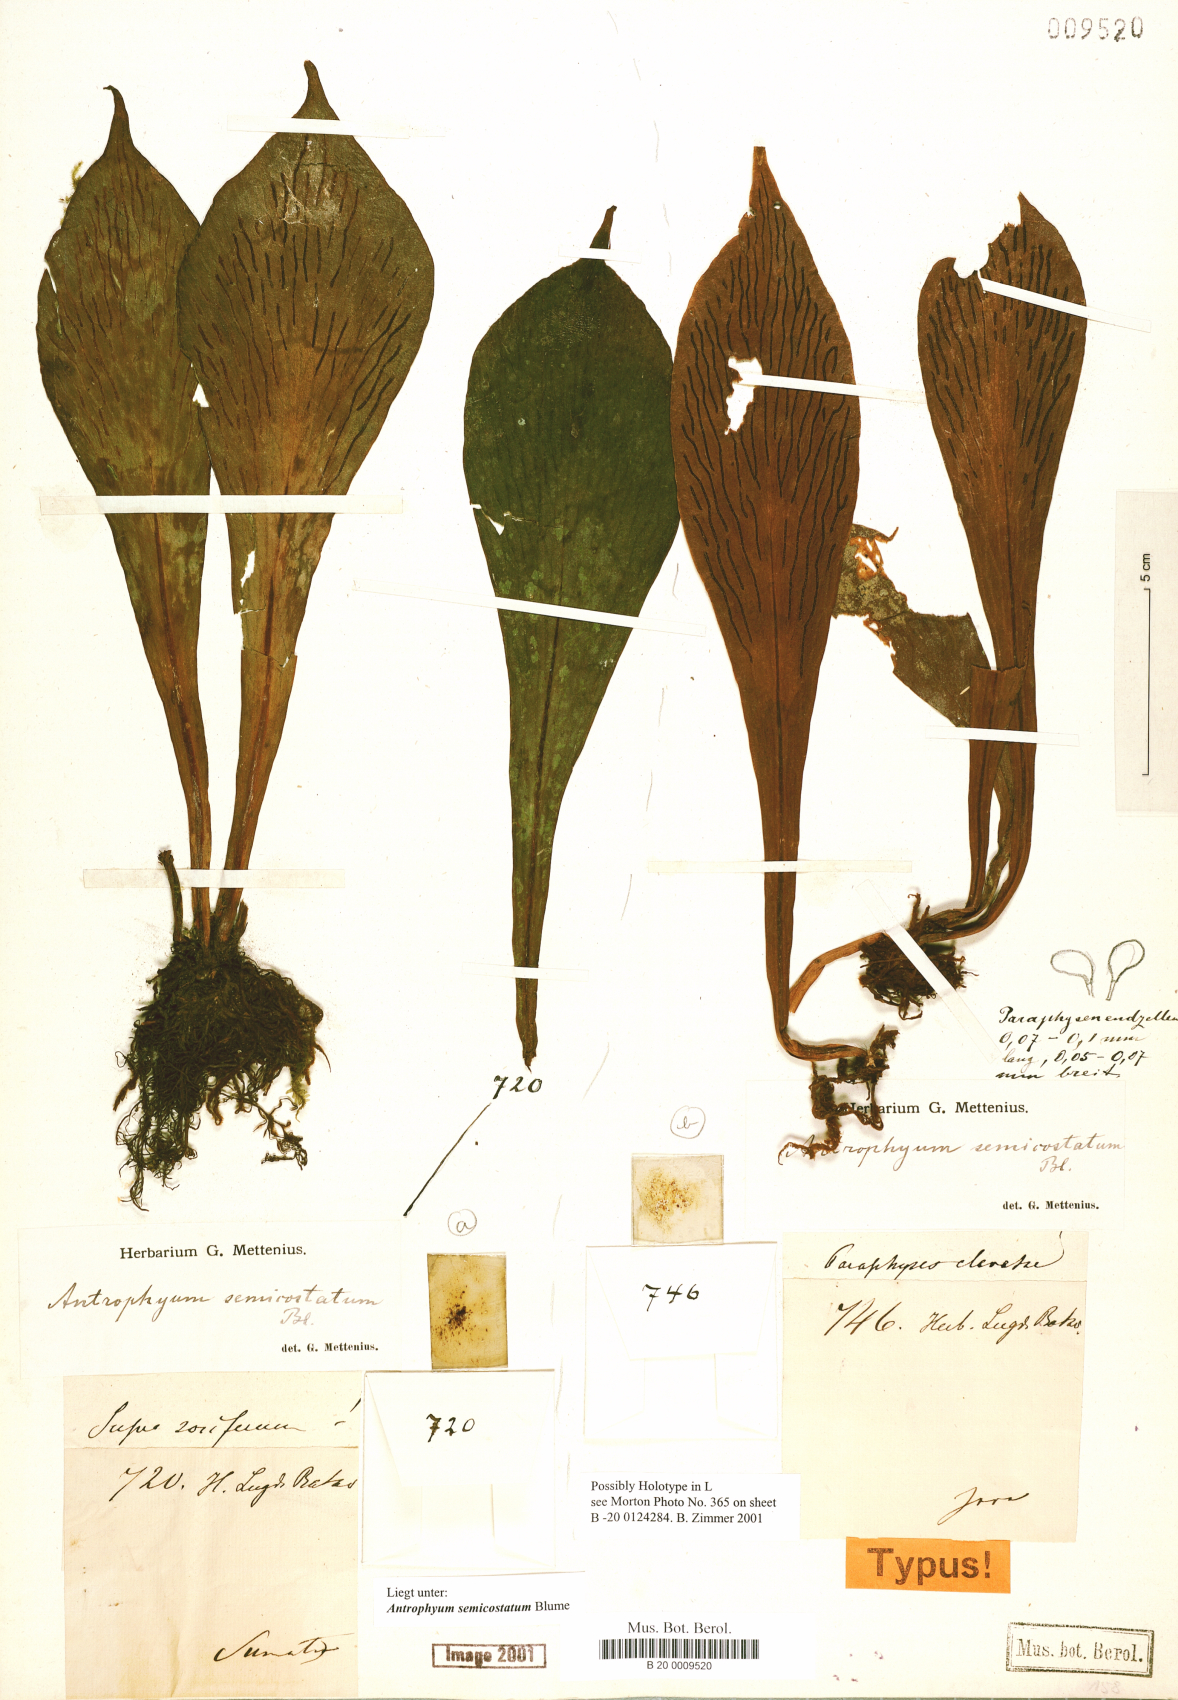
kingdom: Plantae
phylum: Tracheophyta
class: Polypodiopsida
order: Polypodiales
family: Pteridaceae
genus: Antrophyum
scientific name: Antrophyum semicostatum
